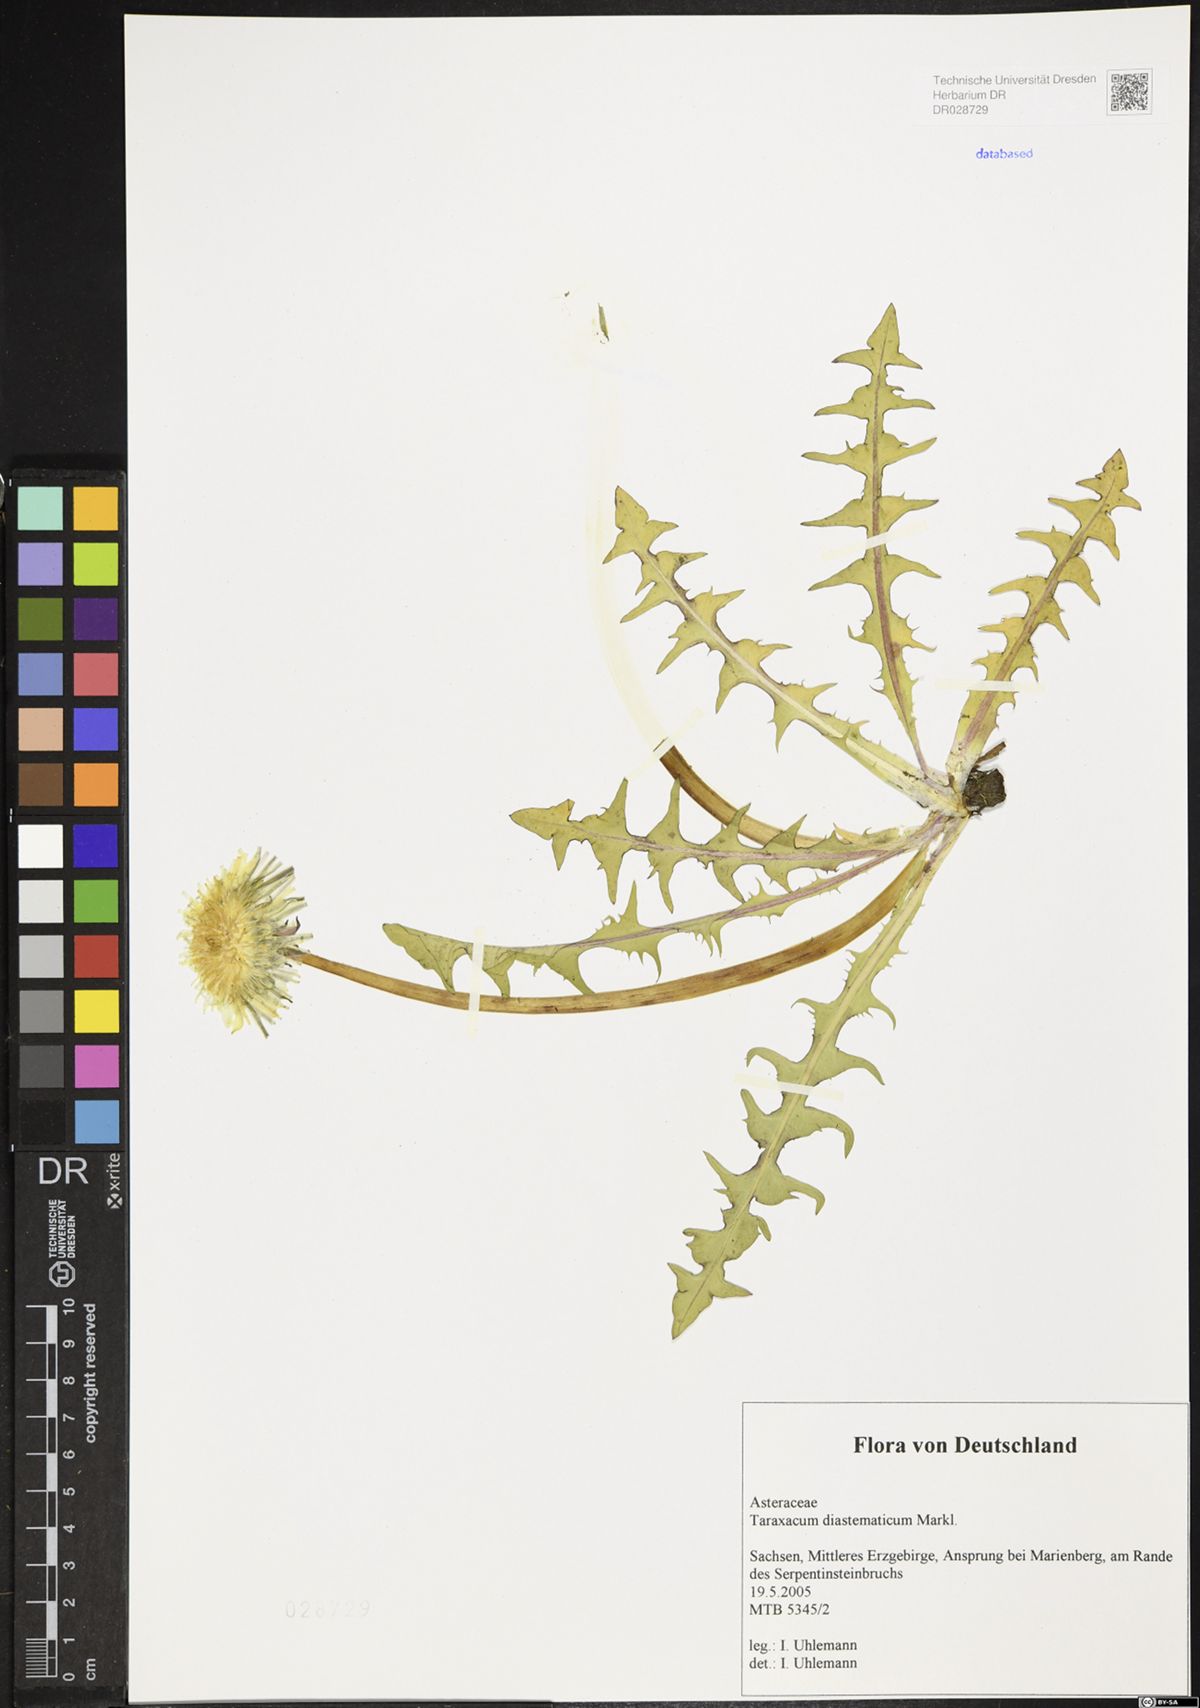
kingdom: Plantae
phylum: Tracheophyta
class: Magnoliopsida
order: Asterales
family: Asteraceae
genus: Taraxacum
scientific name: Taraxacum diastematicum
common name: Bulbous-lobed dandelion
